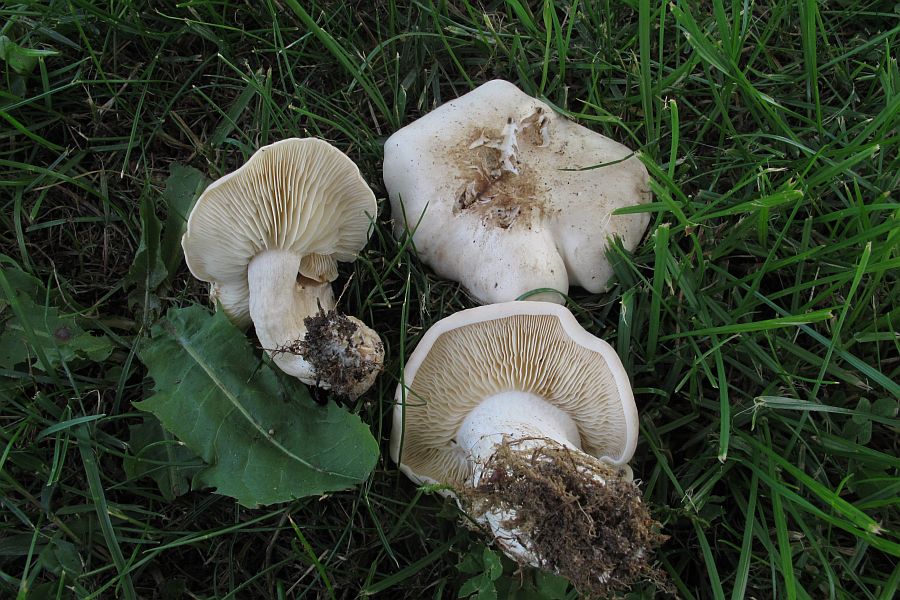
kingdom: Fungi
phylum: Basidiomycota
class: Agaricomycetes
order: Agaricales
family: Lyophyllaceae
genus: Calocybe
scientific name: Calocybe gambosa
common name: vårmusseron
